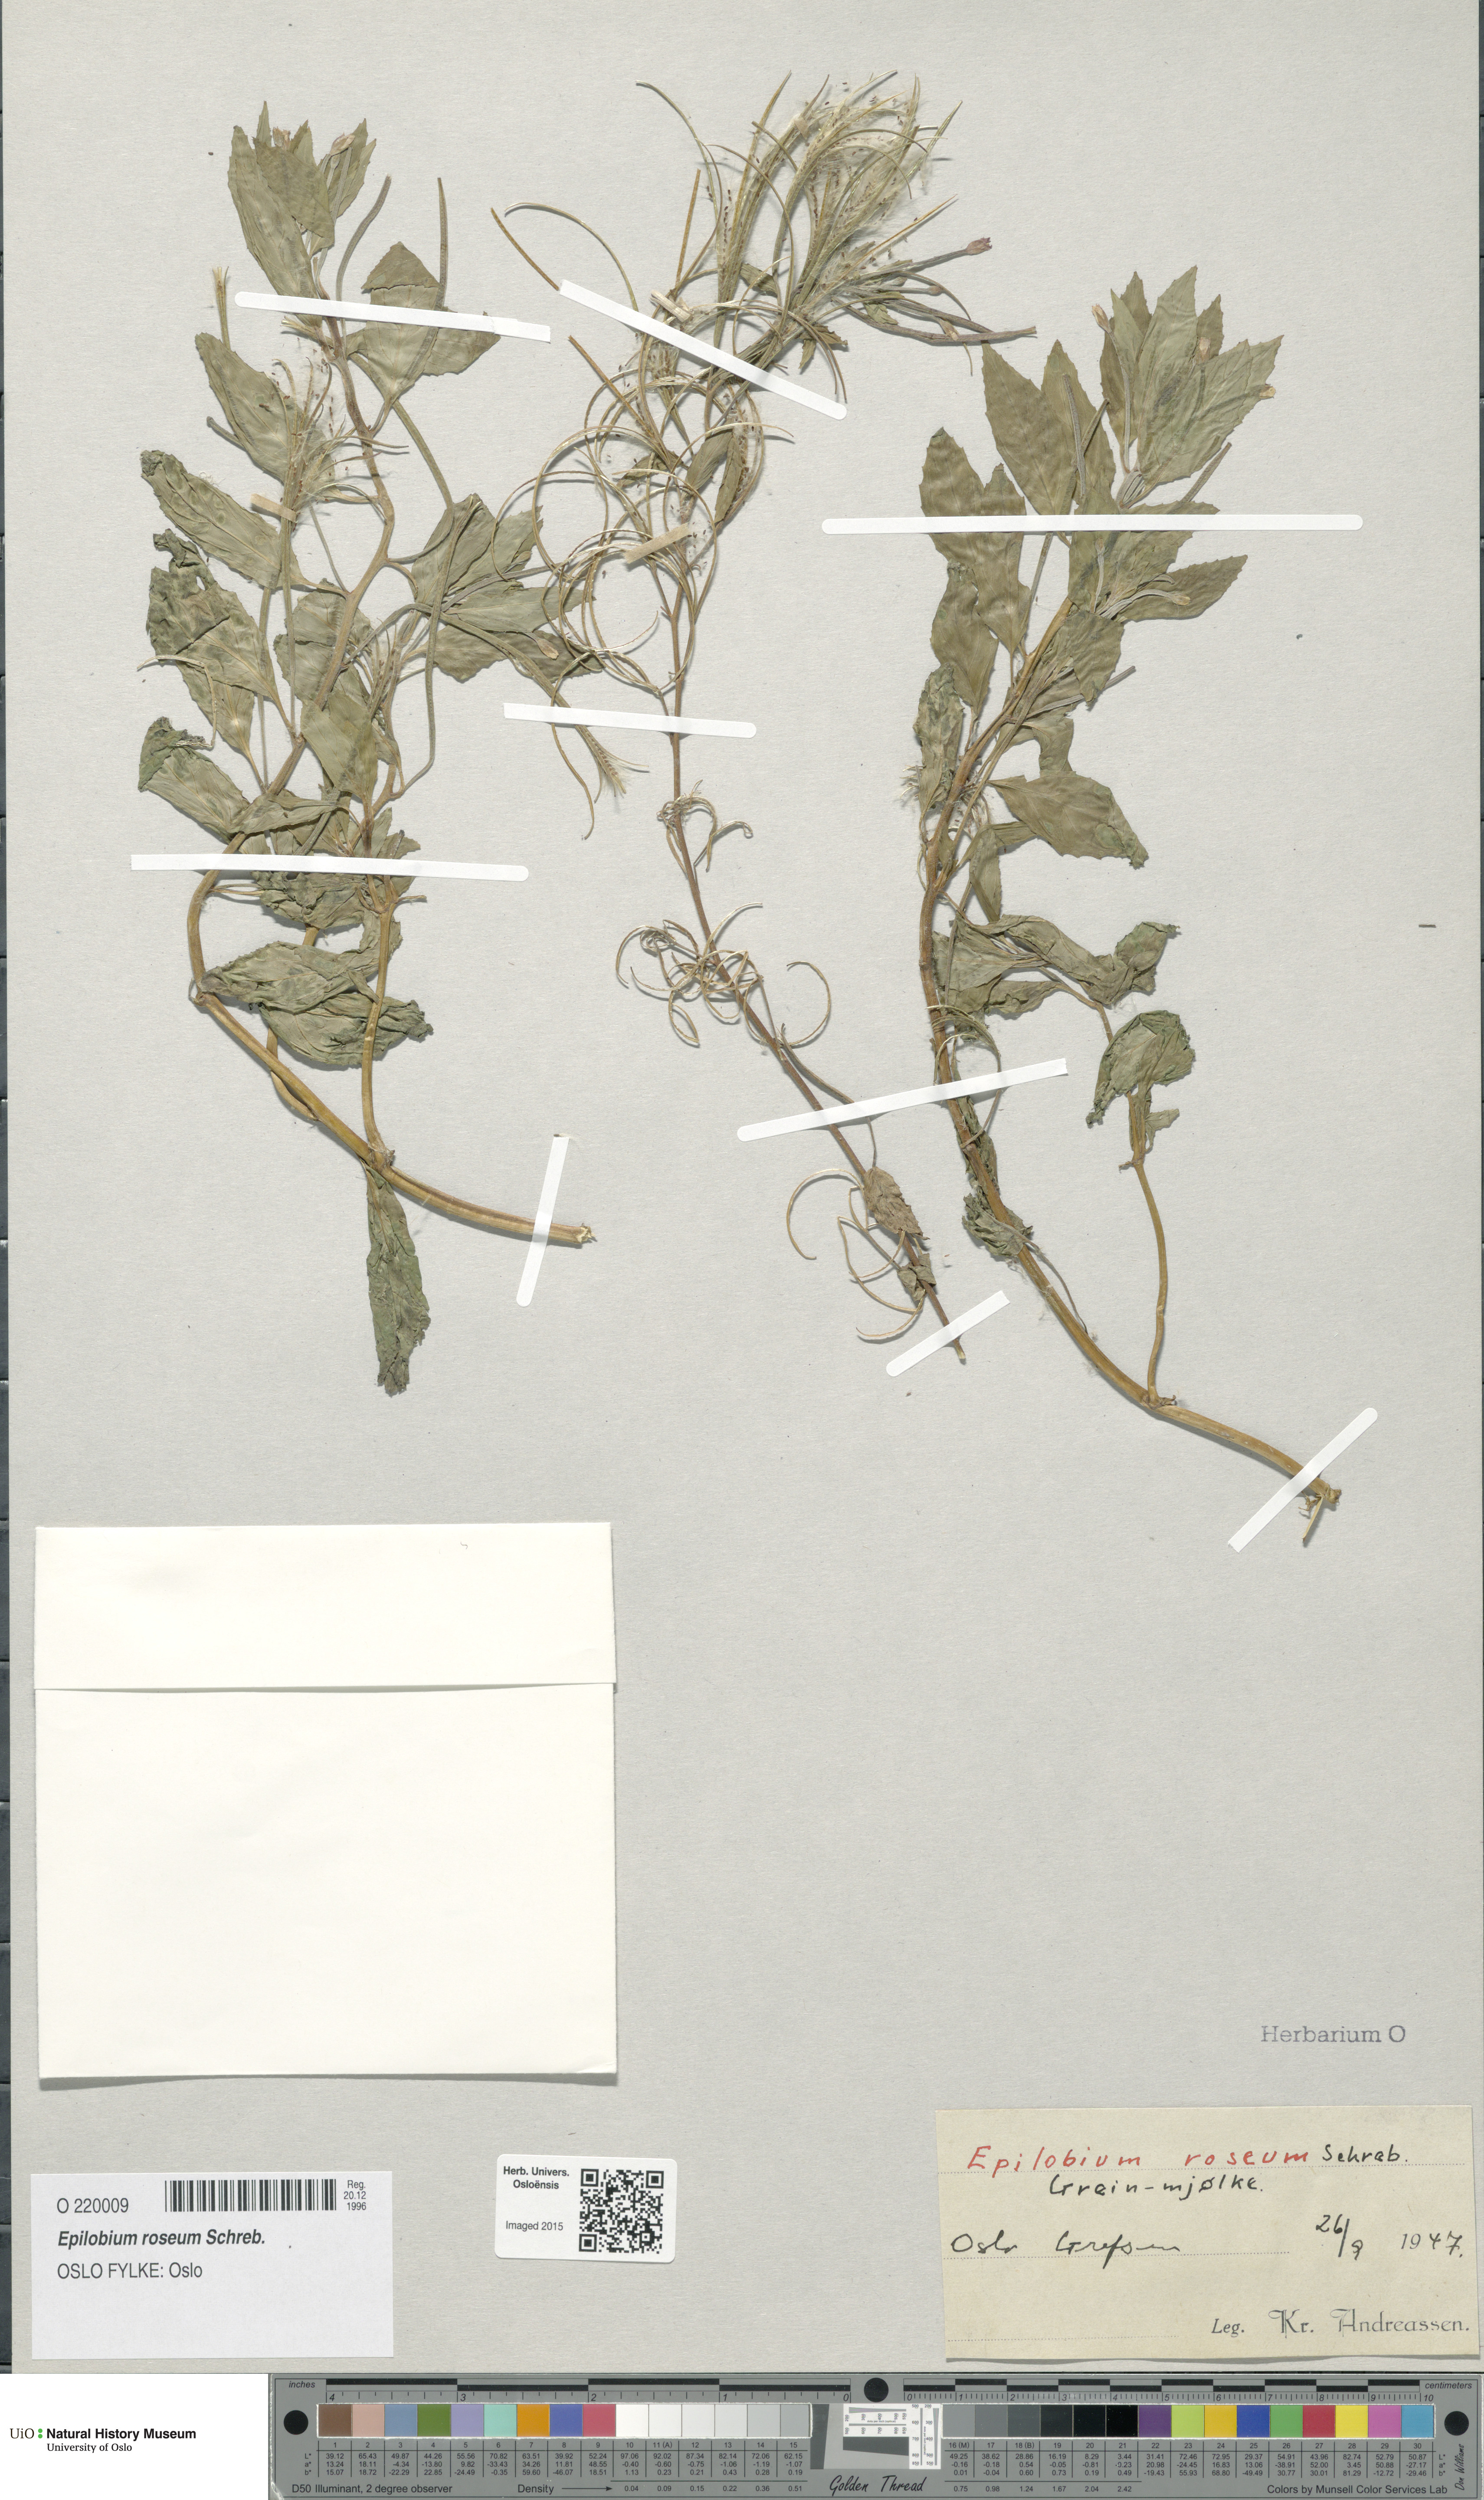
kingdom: Plantae
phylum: Tracheophyta
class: Magnoliopsida
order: Myrtales
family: Onagraceae
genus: Epilobium
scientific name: Epilobium roseum
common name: Pale willowherb
